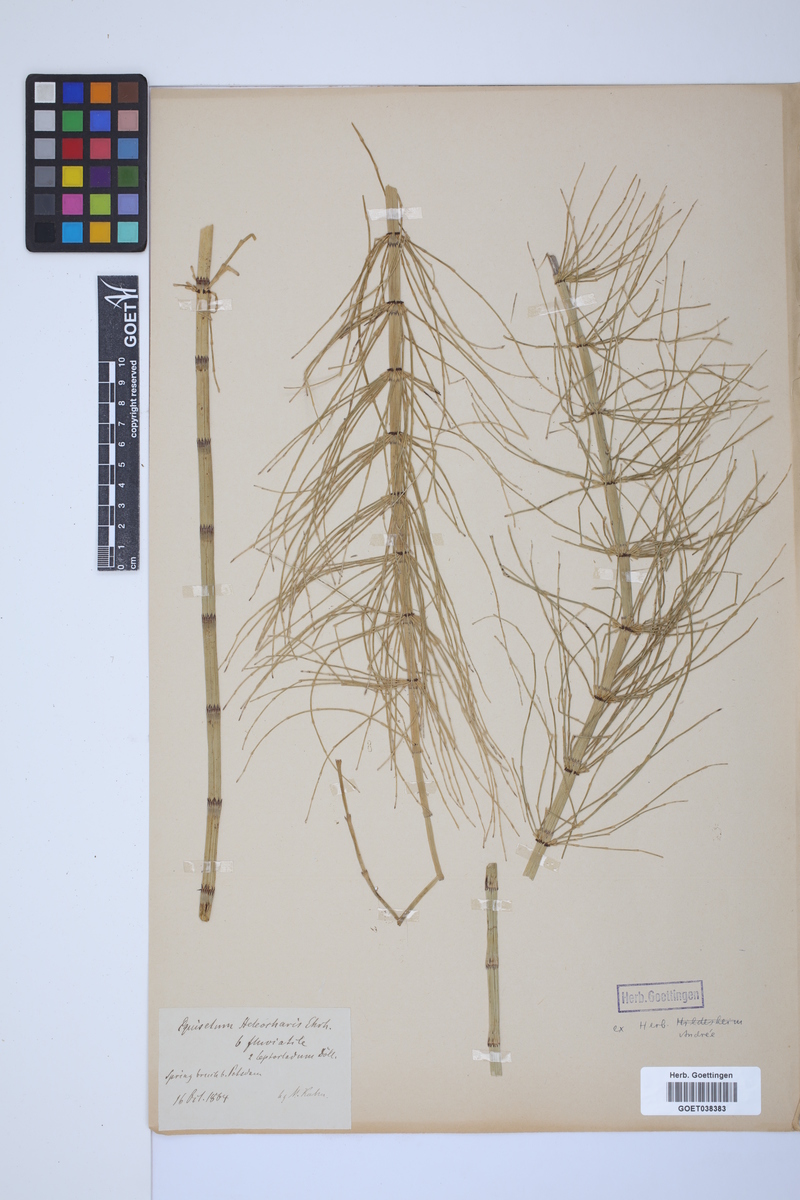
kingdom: Plantae
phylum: Tracheophyta
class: Polypodiopsida
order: Equisetales
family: Equisetaceae
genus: Equisetum
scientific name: Equisetum fluviatile
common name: Water horsetail
